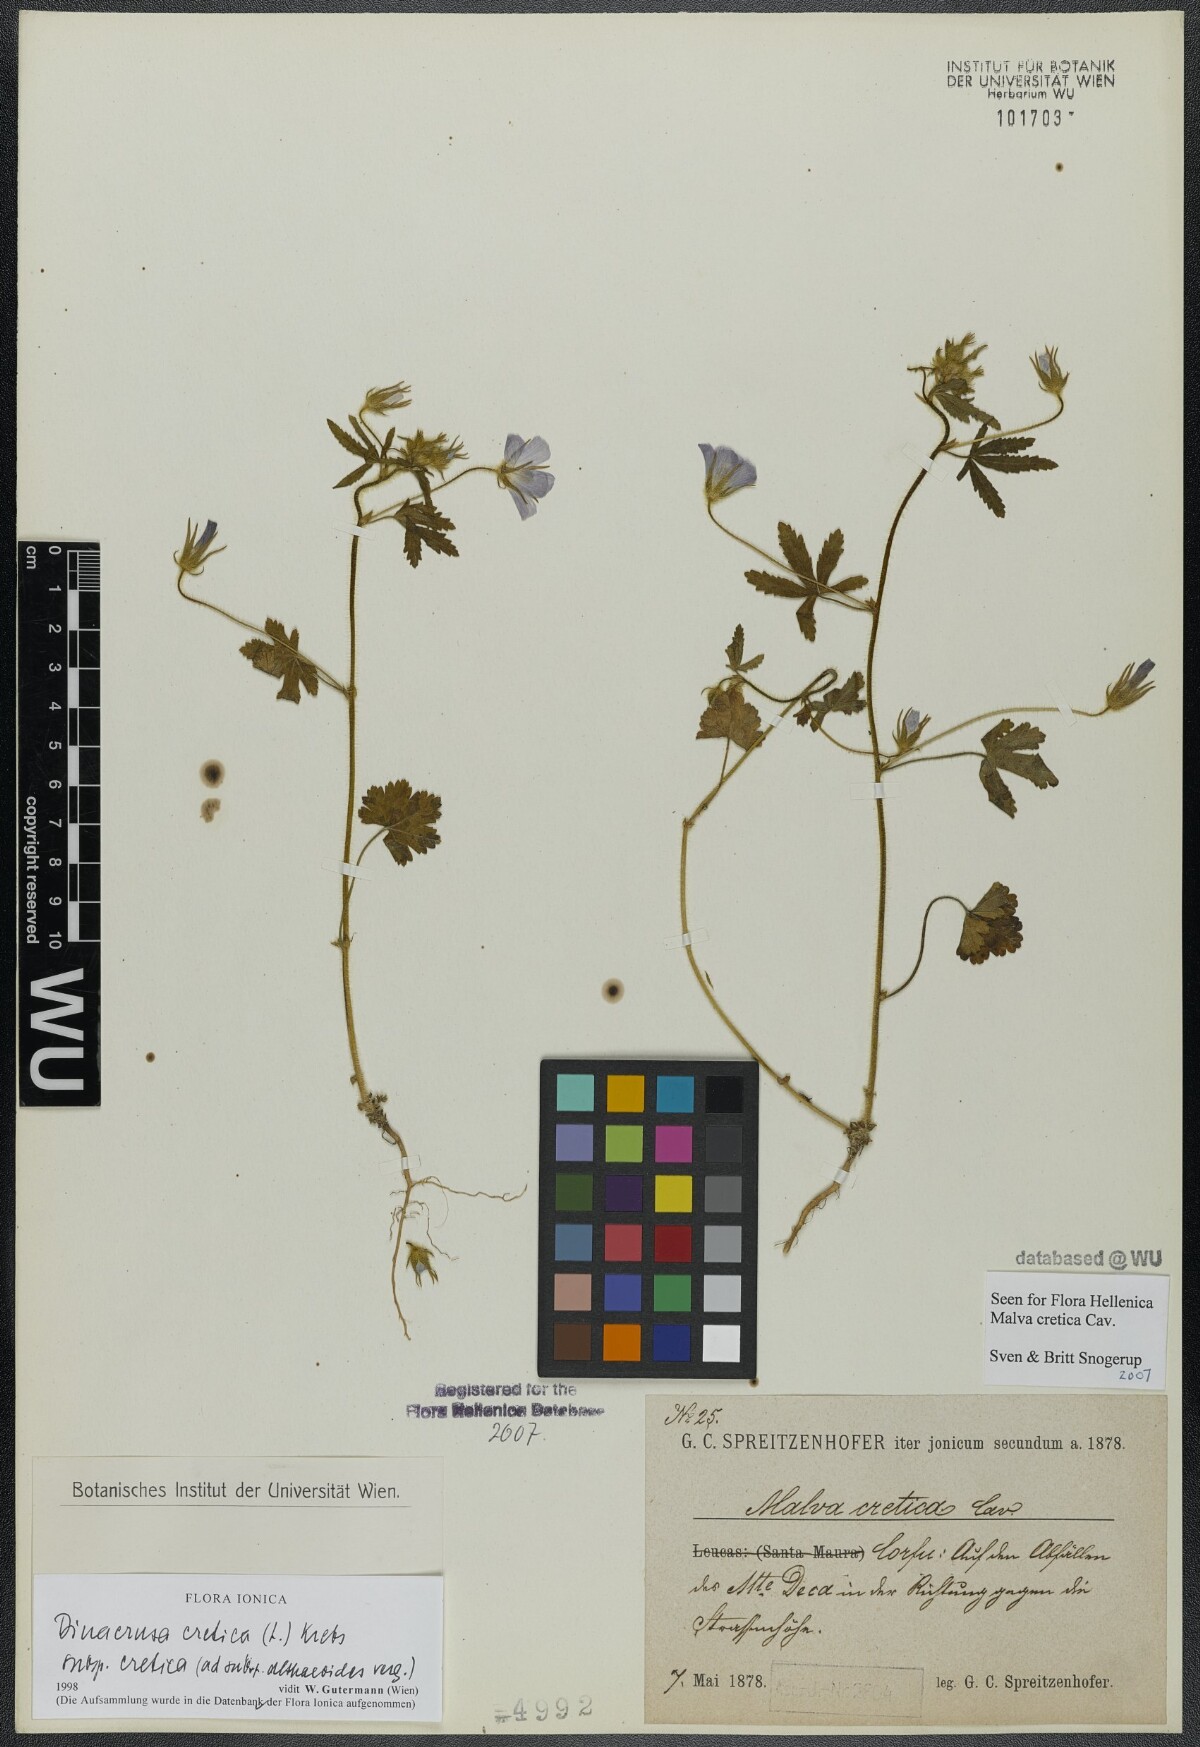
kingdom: Plantae
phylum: Tracheophyta
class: Magnoliopsida
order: Malvales
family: Malvaceae
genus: Malva
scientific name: Malva cretica
